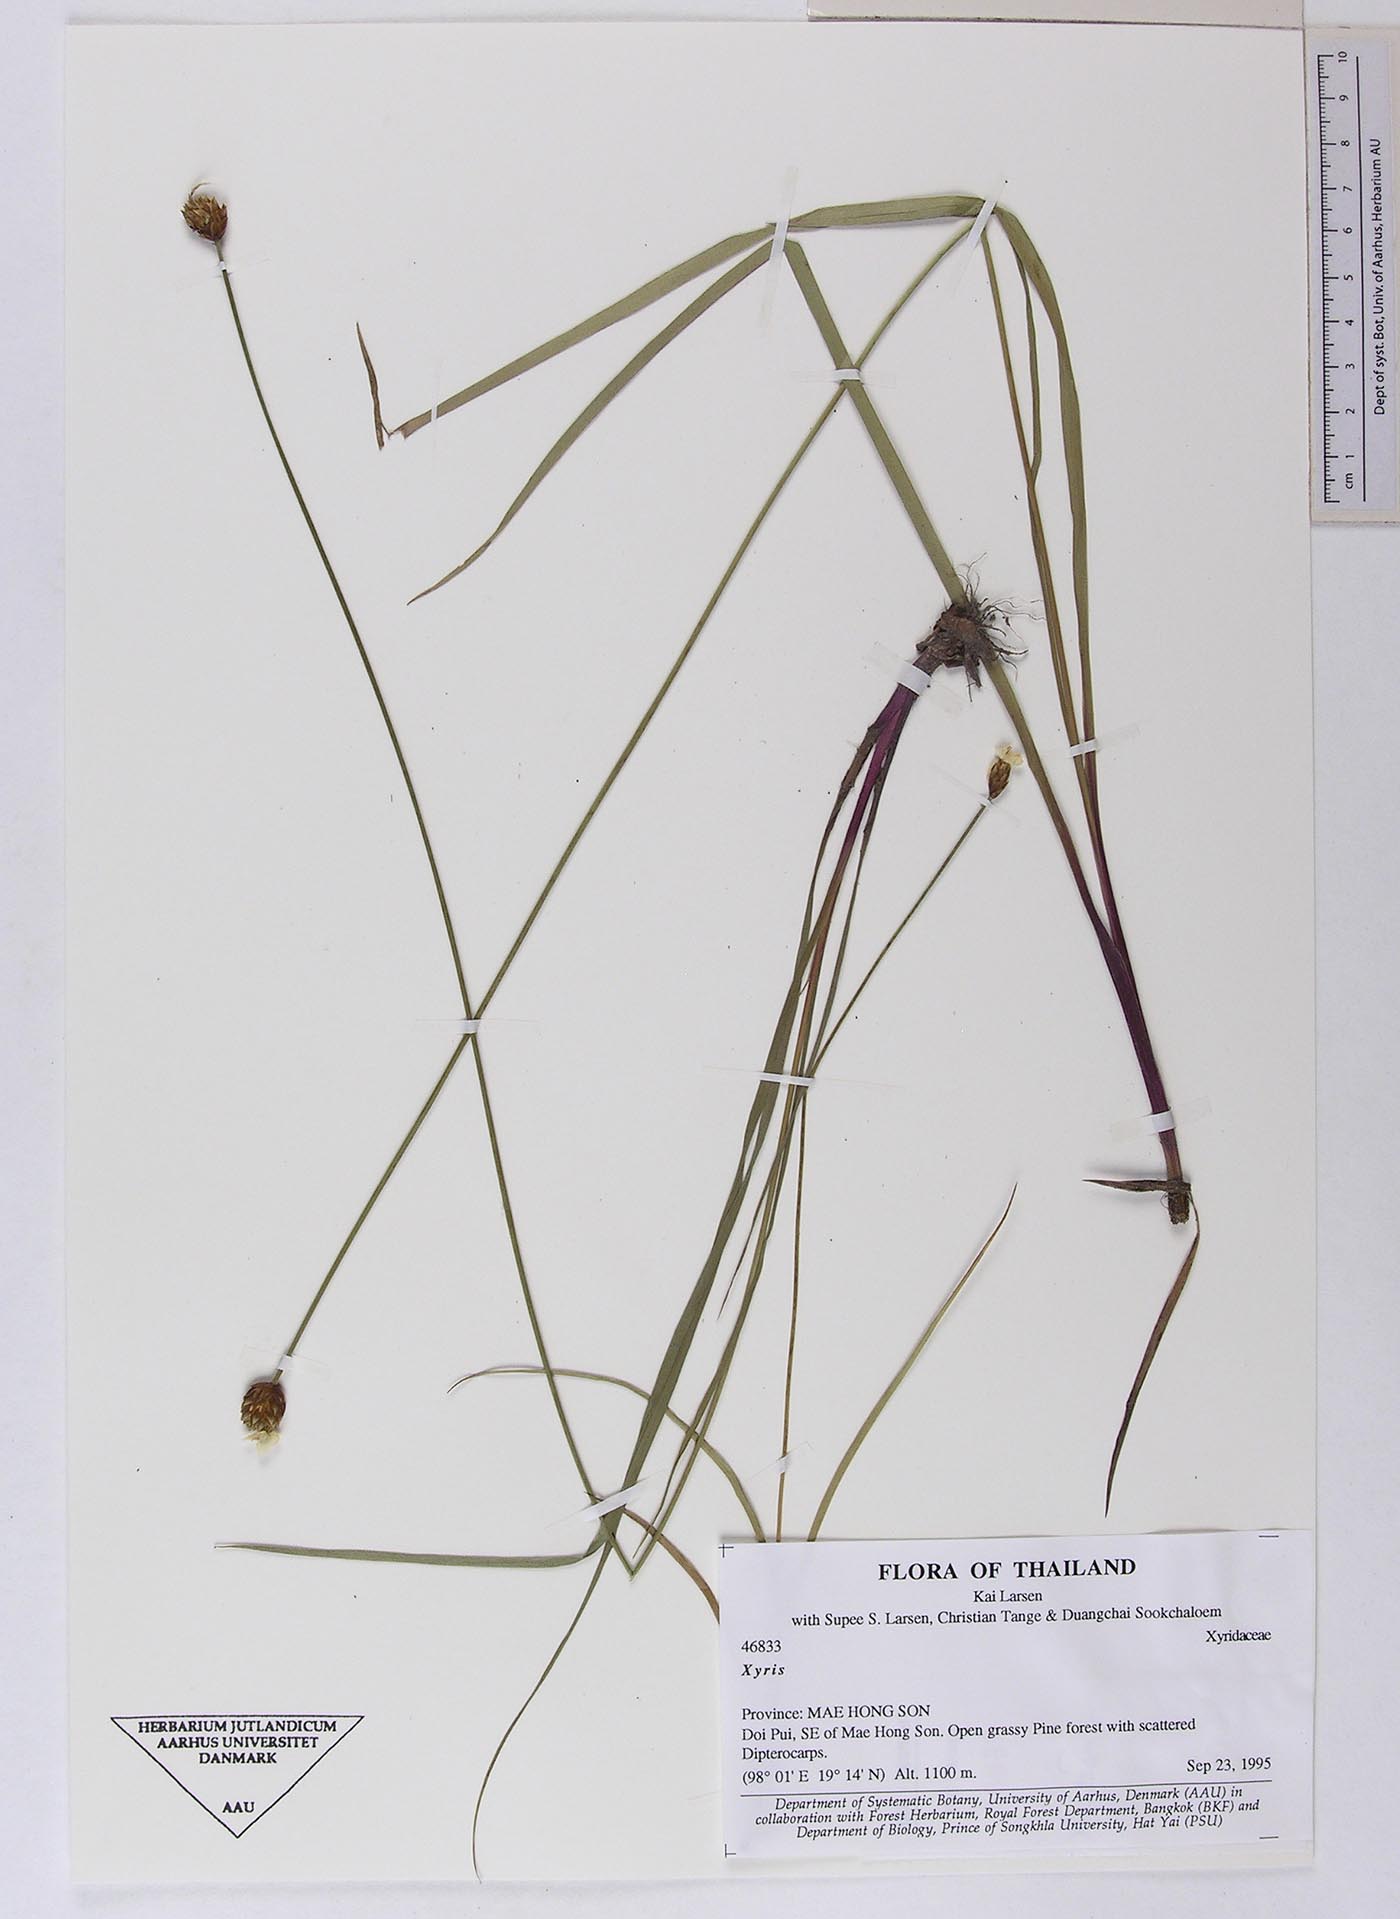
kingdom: Plantae
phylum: Tracheophyta
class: Liliopsida
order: Poales
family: Xyridaceae
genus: Xyris
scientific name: Xyris lobbii
